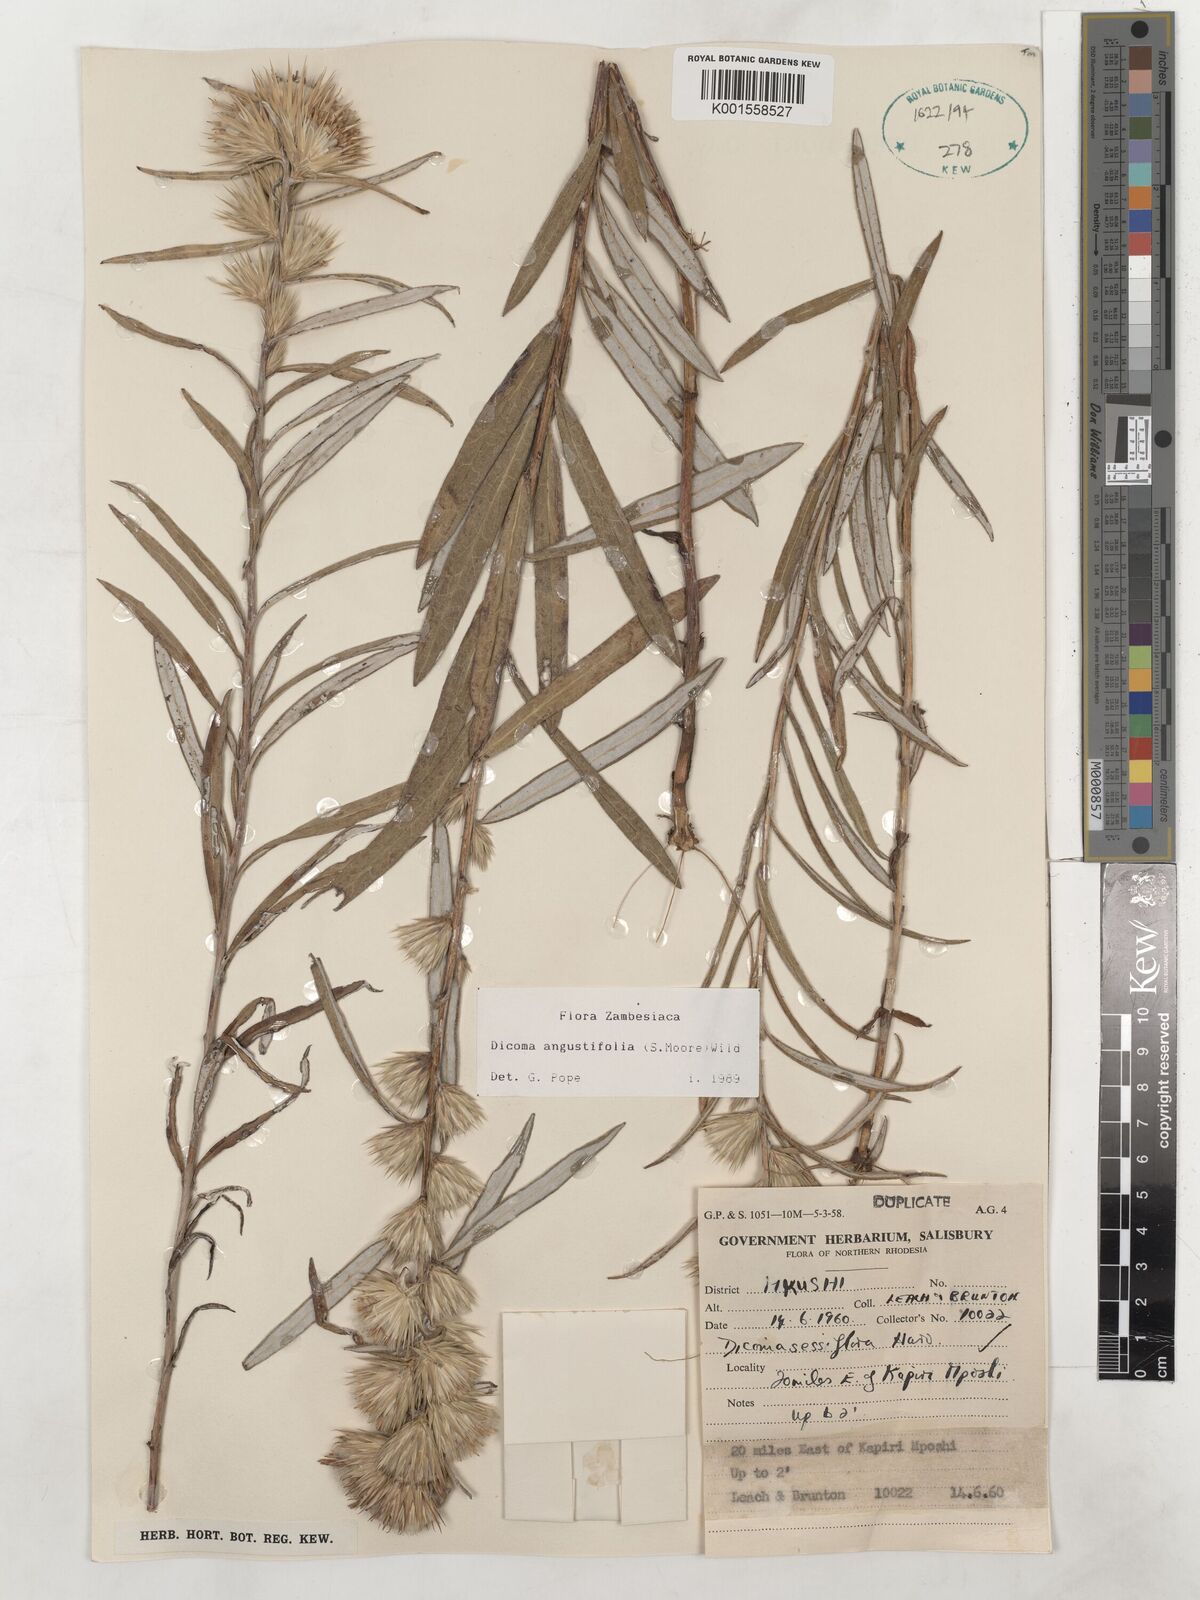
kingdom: Plantae
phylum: Tracheophyta
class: Magnoliopsida
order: Asterales
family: Asteraceae
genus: Macledium
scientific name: Macledium poggei
